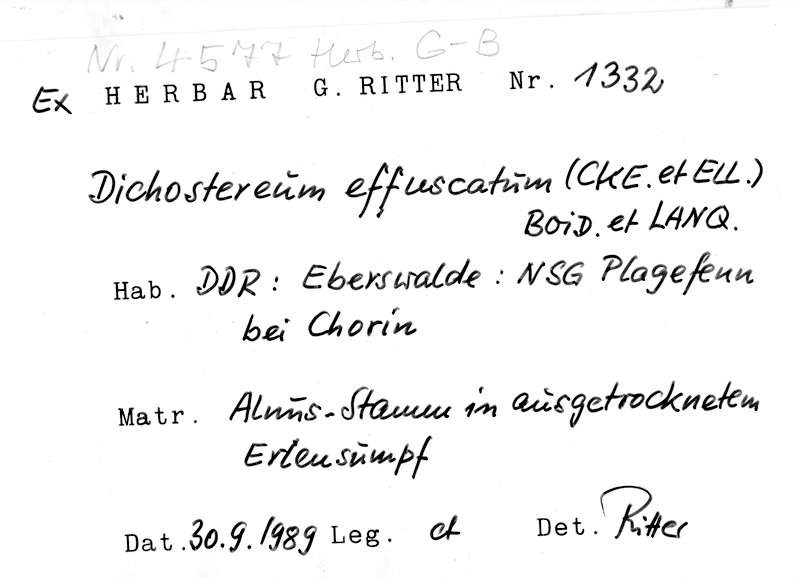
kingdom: Fungi
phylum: Basidiomycota
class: Agaricomycetes
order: Russulales
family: Peniophoraceae
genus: Dichostereum
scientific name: Dichostereum effuscatum
